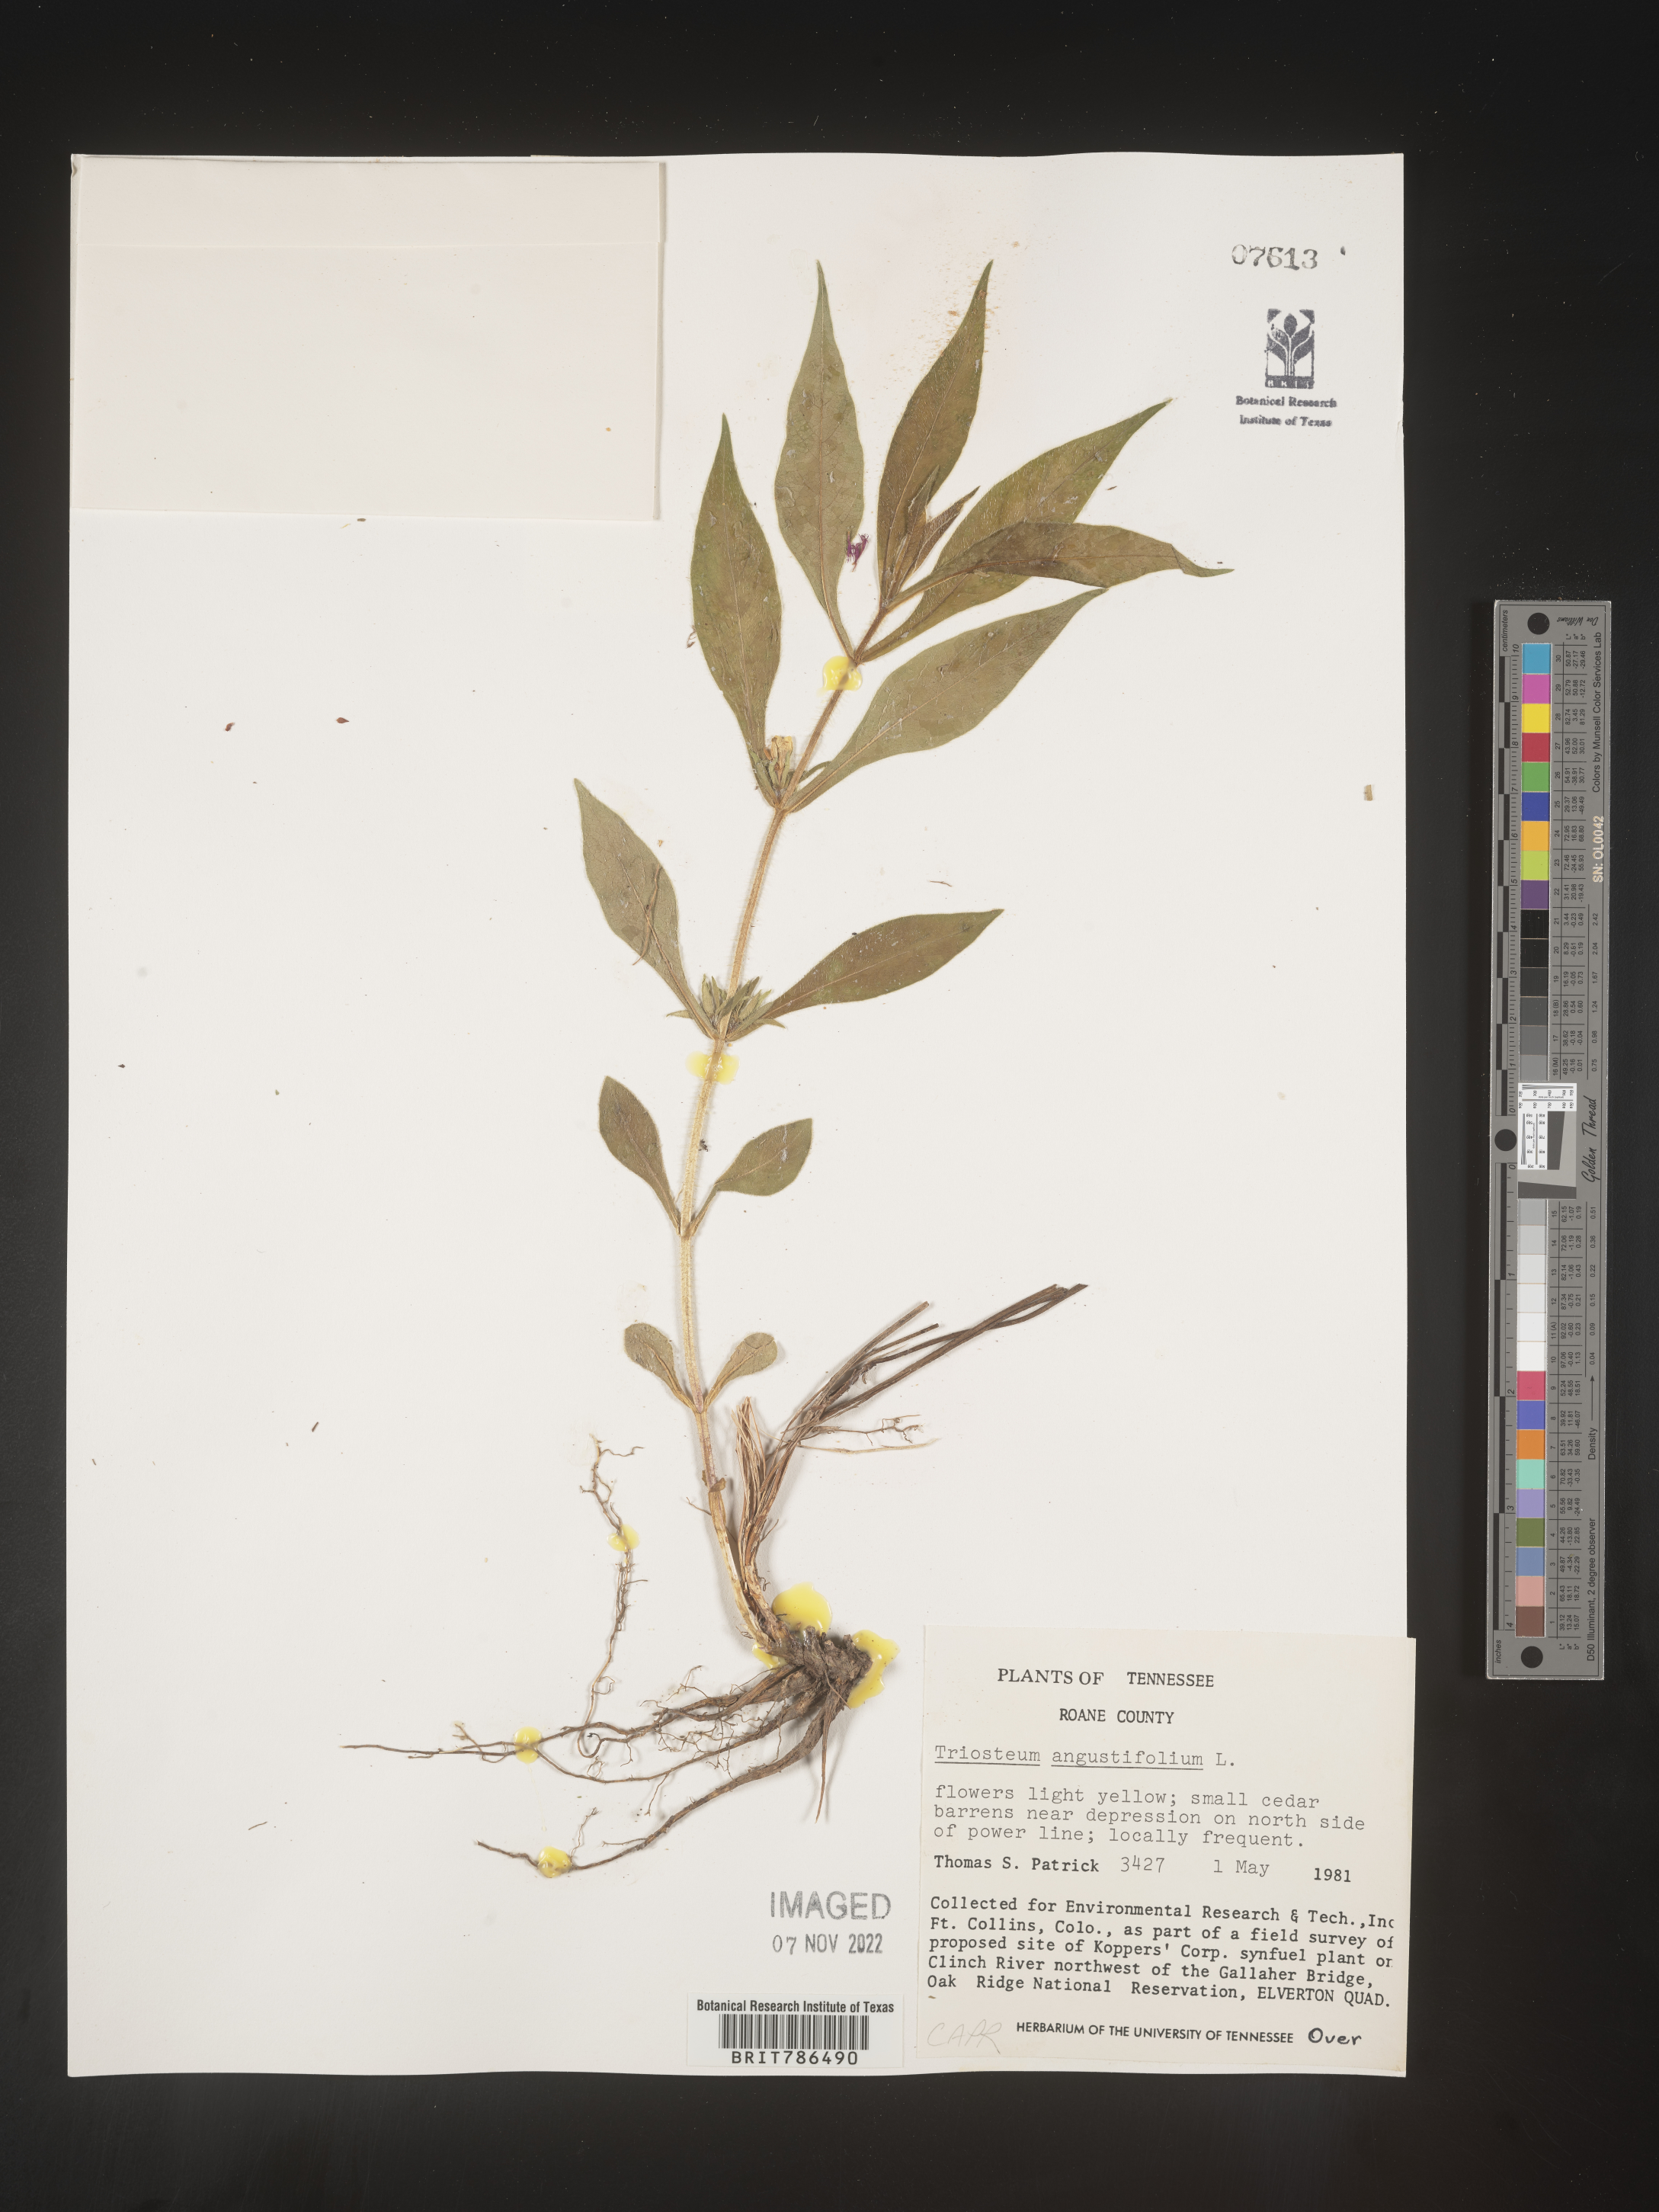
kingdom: Plantae
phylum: Tracheophyta
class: Magnoliopsida
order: Dipsacales
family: Caprifoliaceae
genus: Triosteum
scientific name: Triosteum angustifolium
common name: Narrow-leaved horse-gentian
